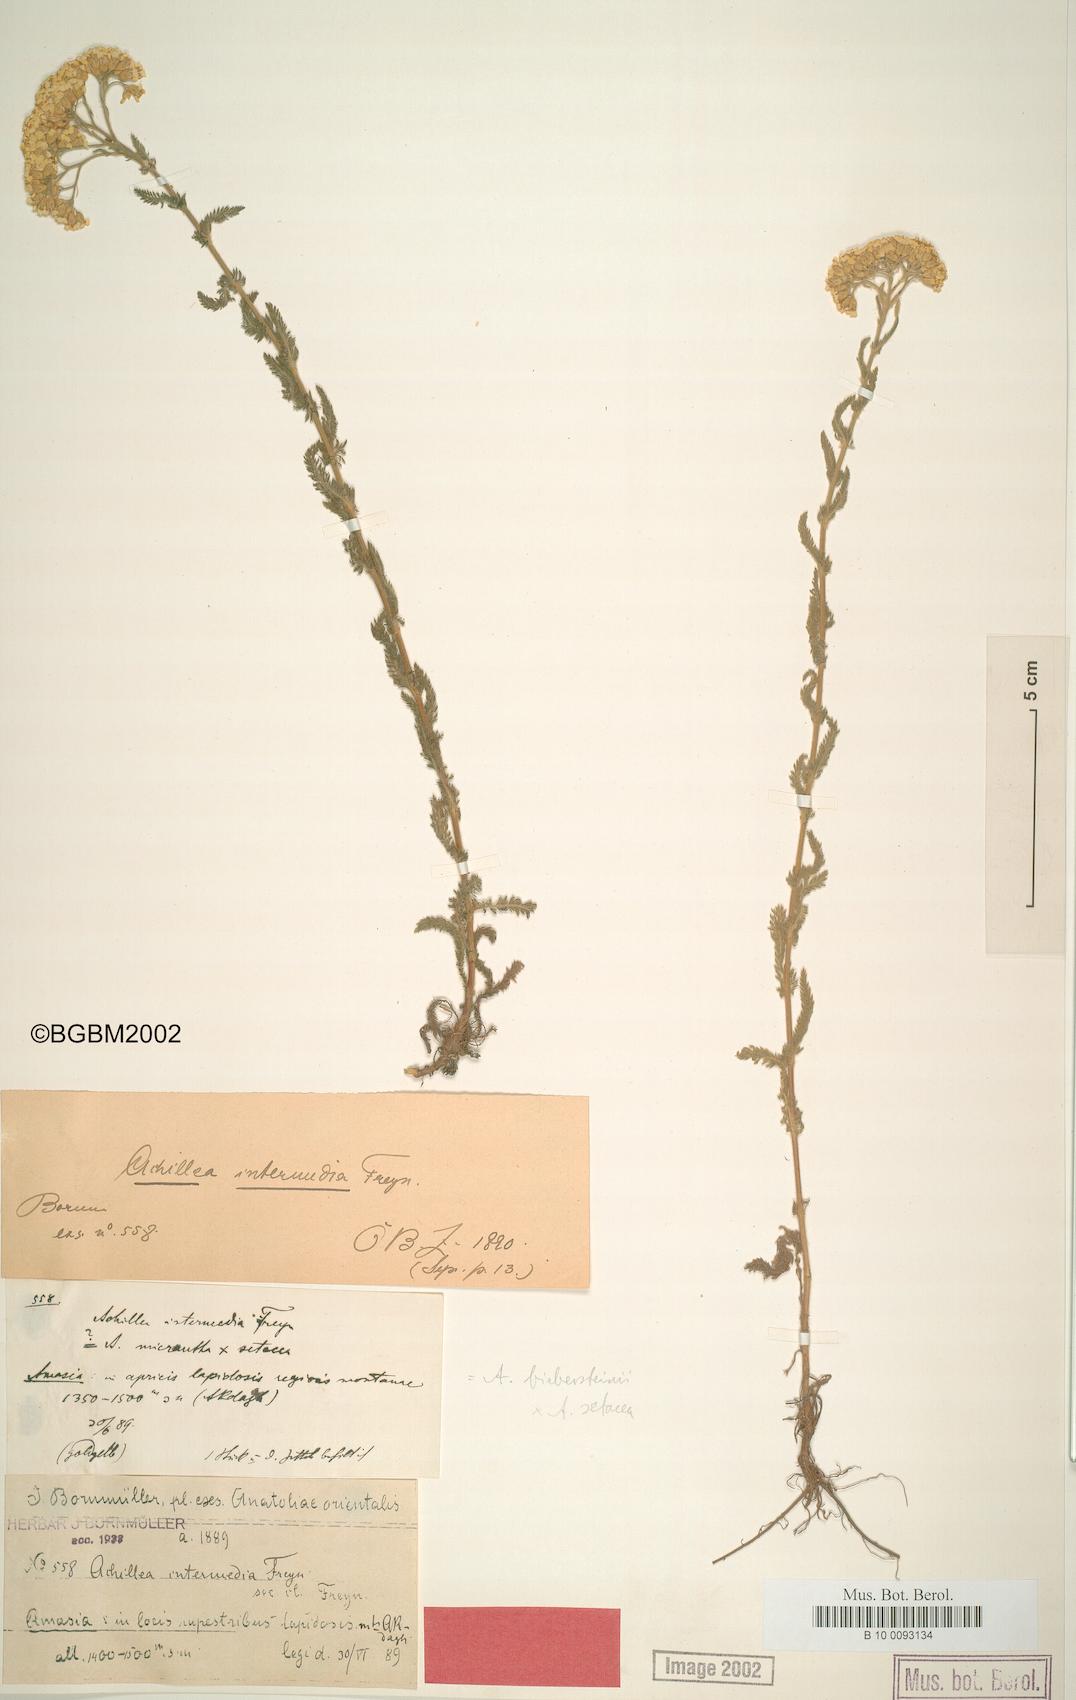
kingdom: Plantae
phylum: Tracheophyta
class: Magnoliopsida
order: Asterales
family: Asteraceae
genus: Achillea
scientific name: Achillea arabica
